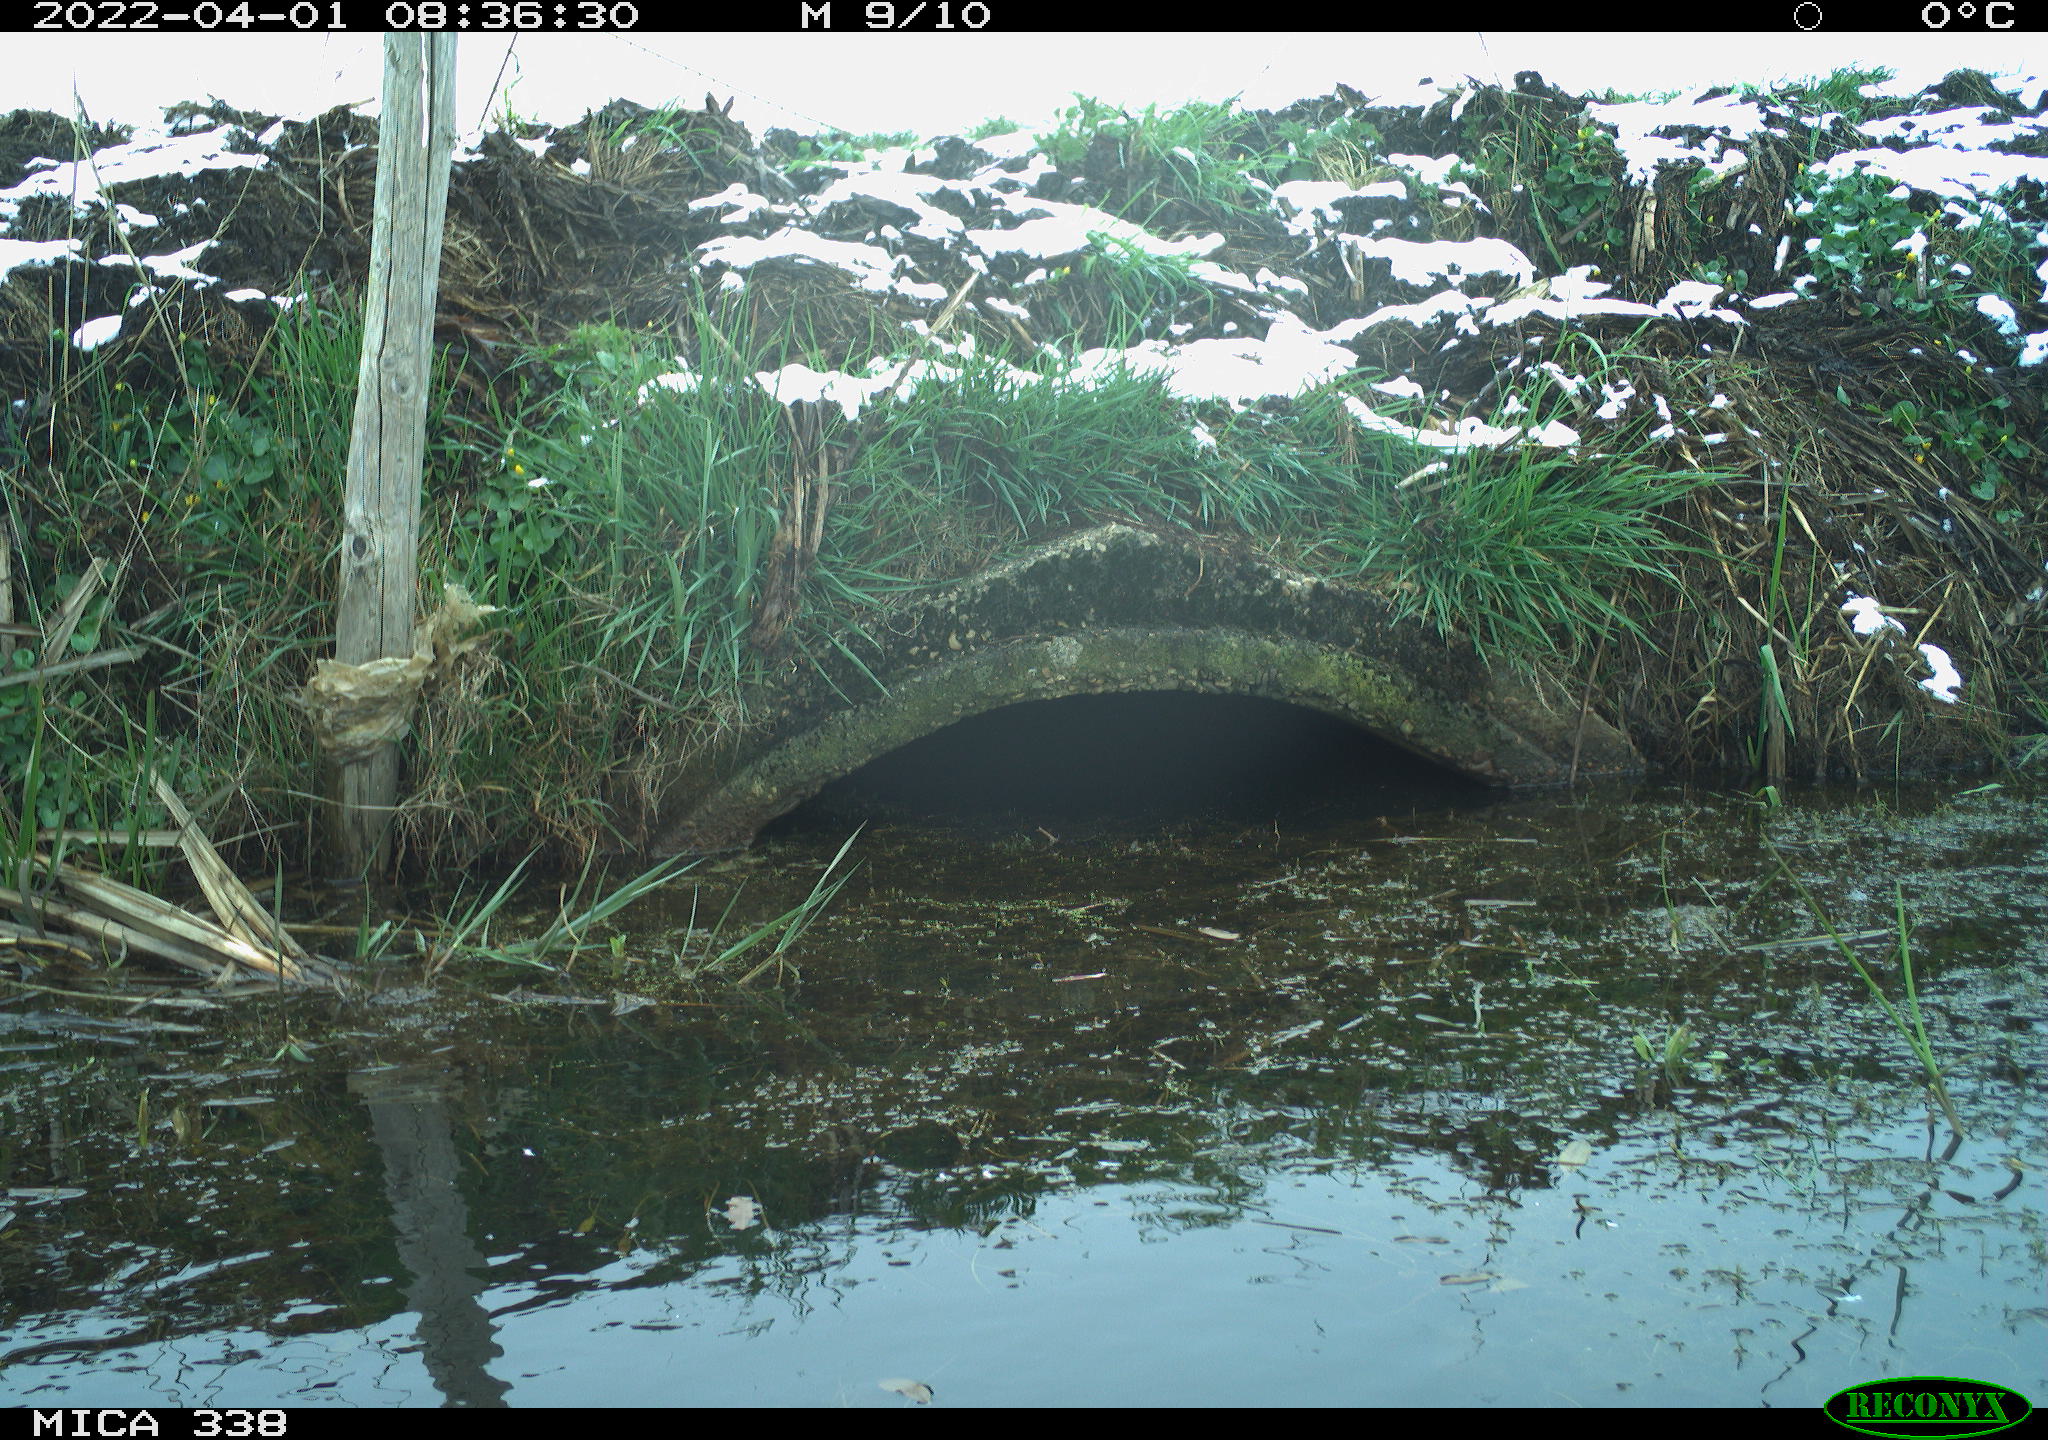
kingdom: Animalia
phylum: Chordata
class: Aves
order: Pelecaniformes
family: Ardeidae
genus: Ardea
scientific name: Ardea alba
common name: Great egret
